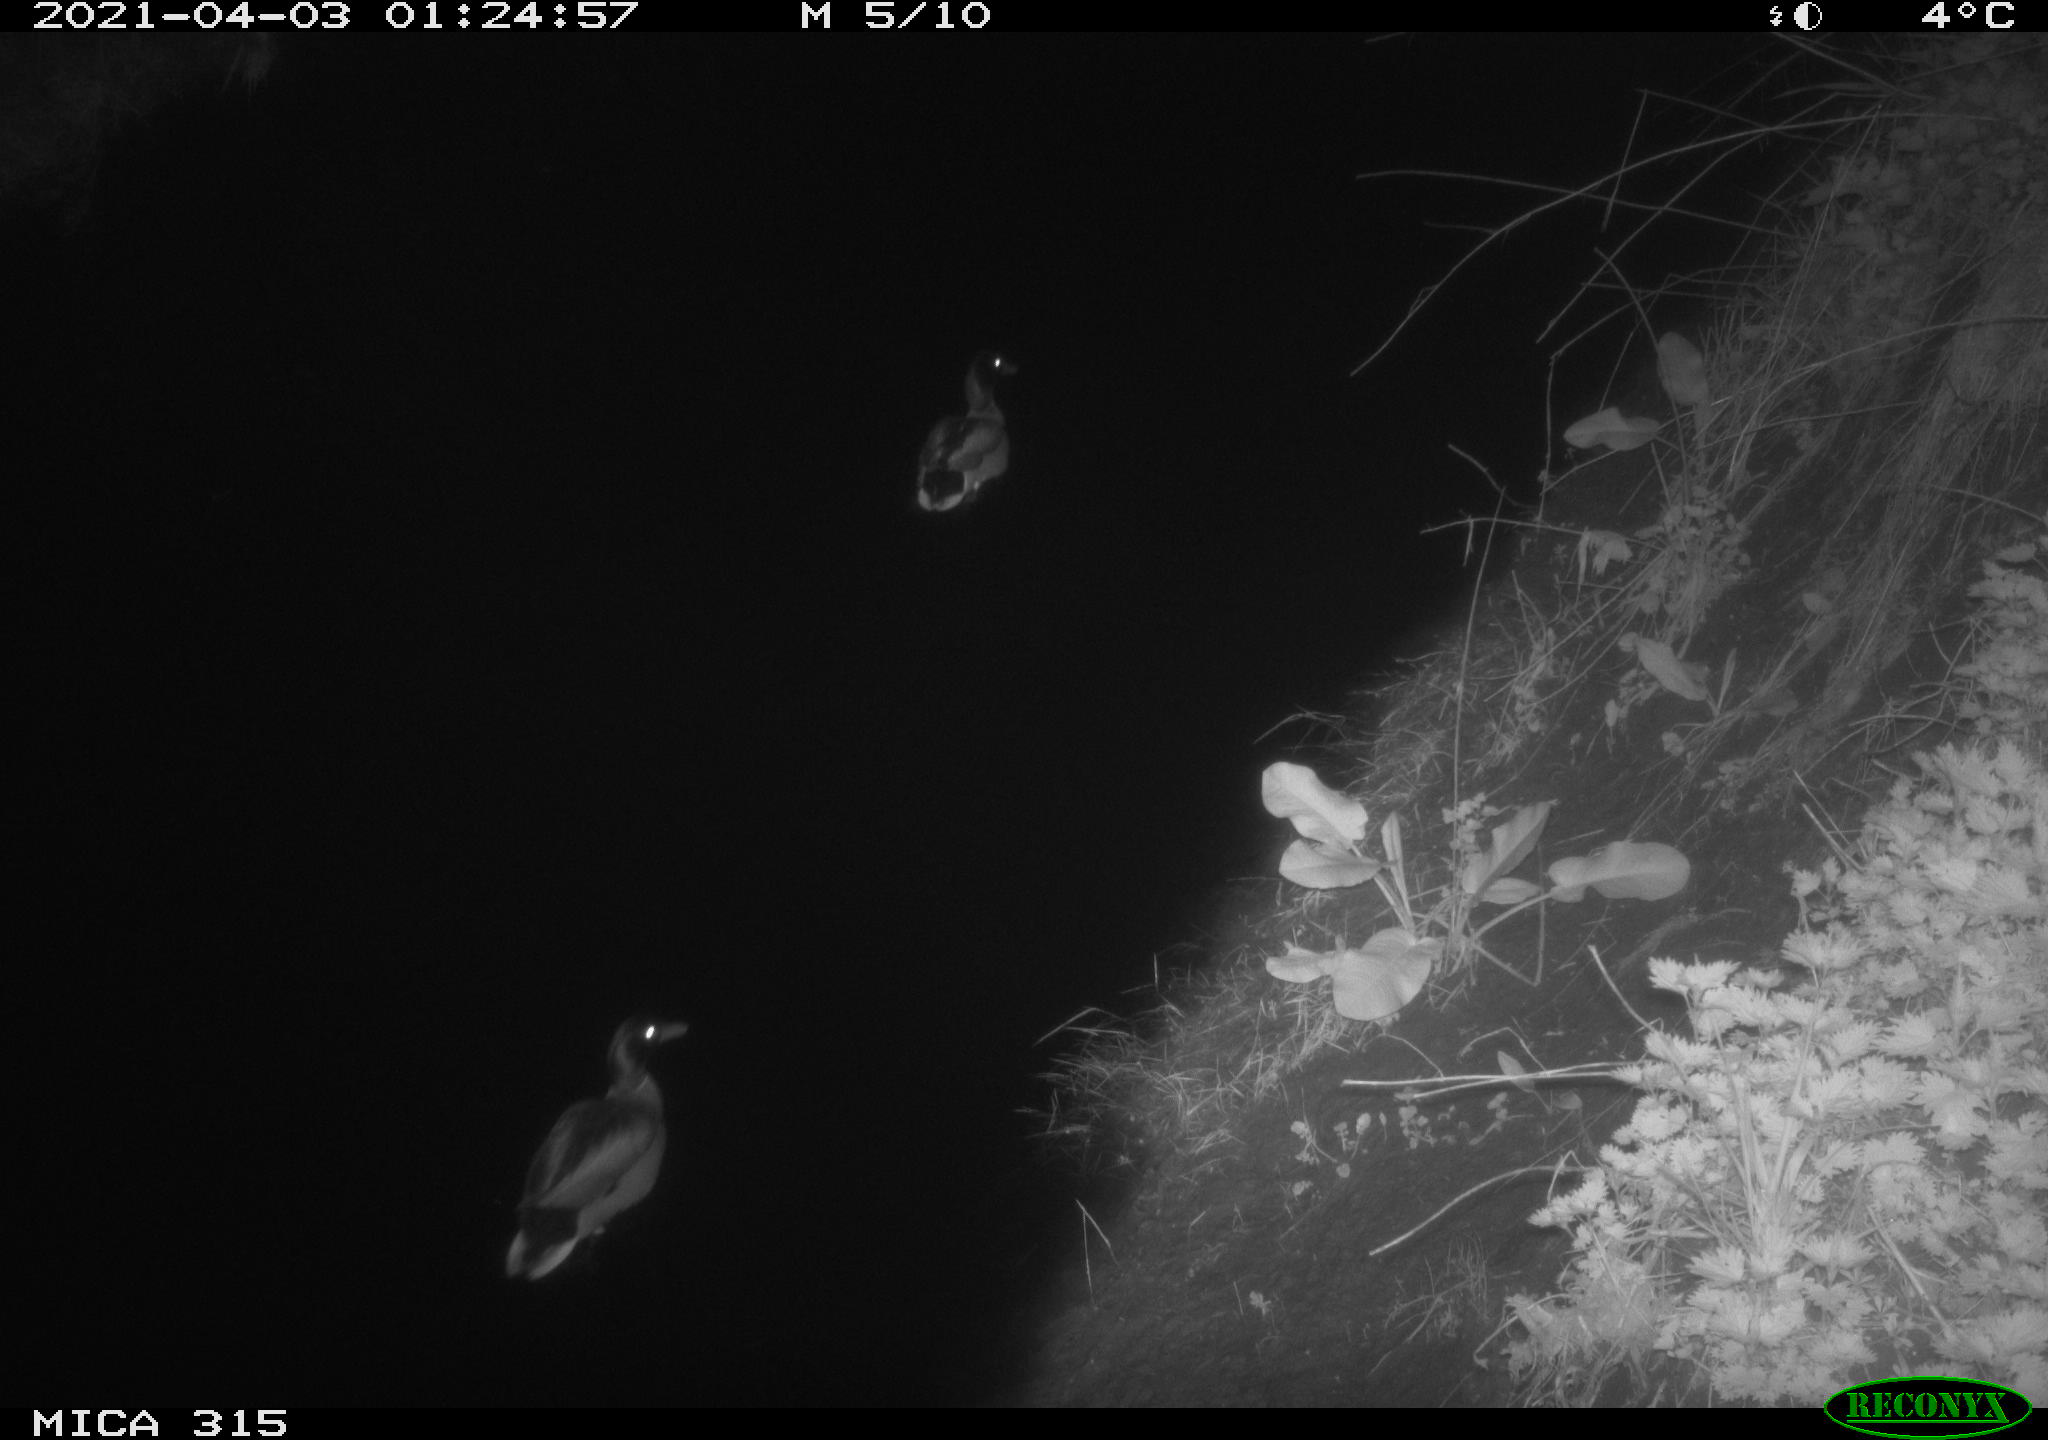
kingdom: Animalia
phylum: Chordata
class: Aves
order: Anseriformes
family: Anatidae
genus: Anas
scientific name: Anas platyrhynchos
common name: Mallard
